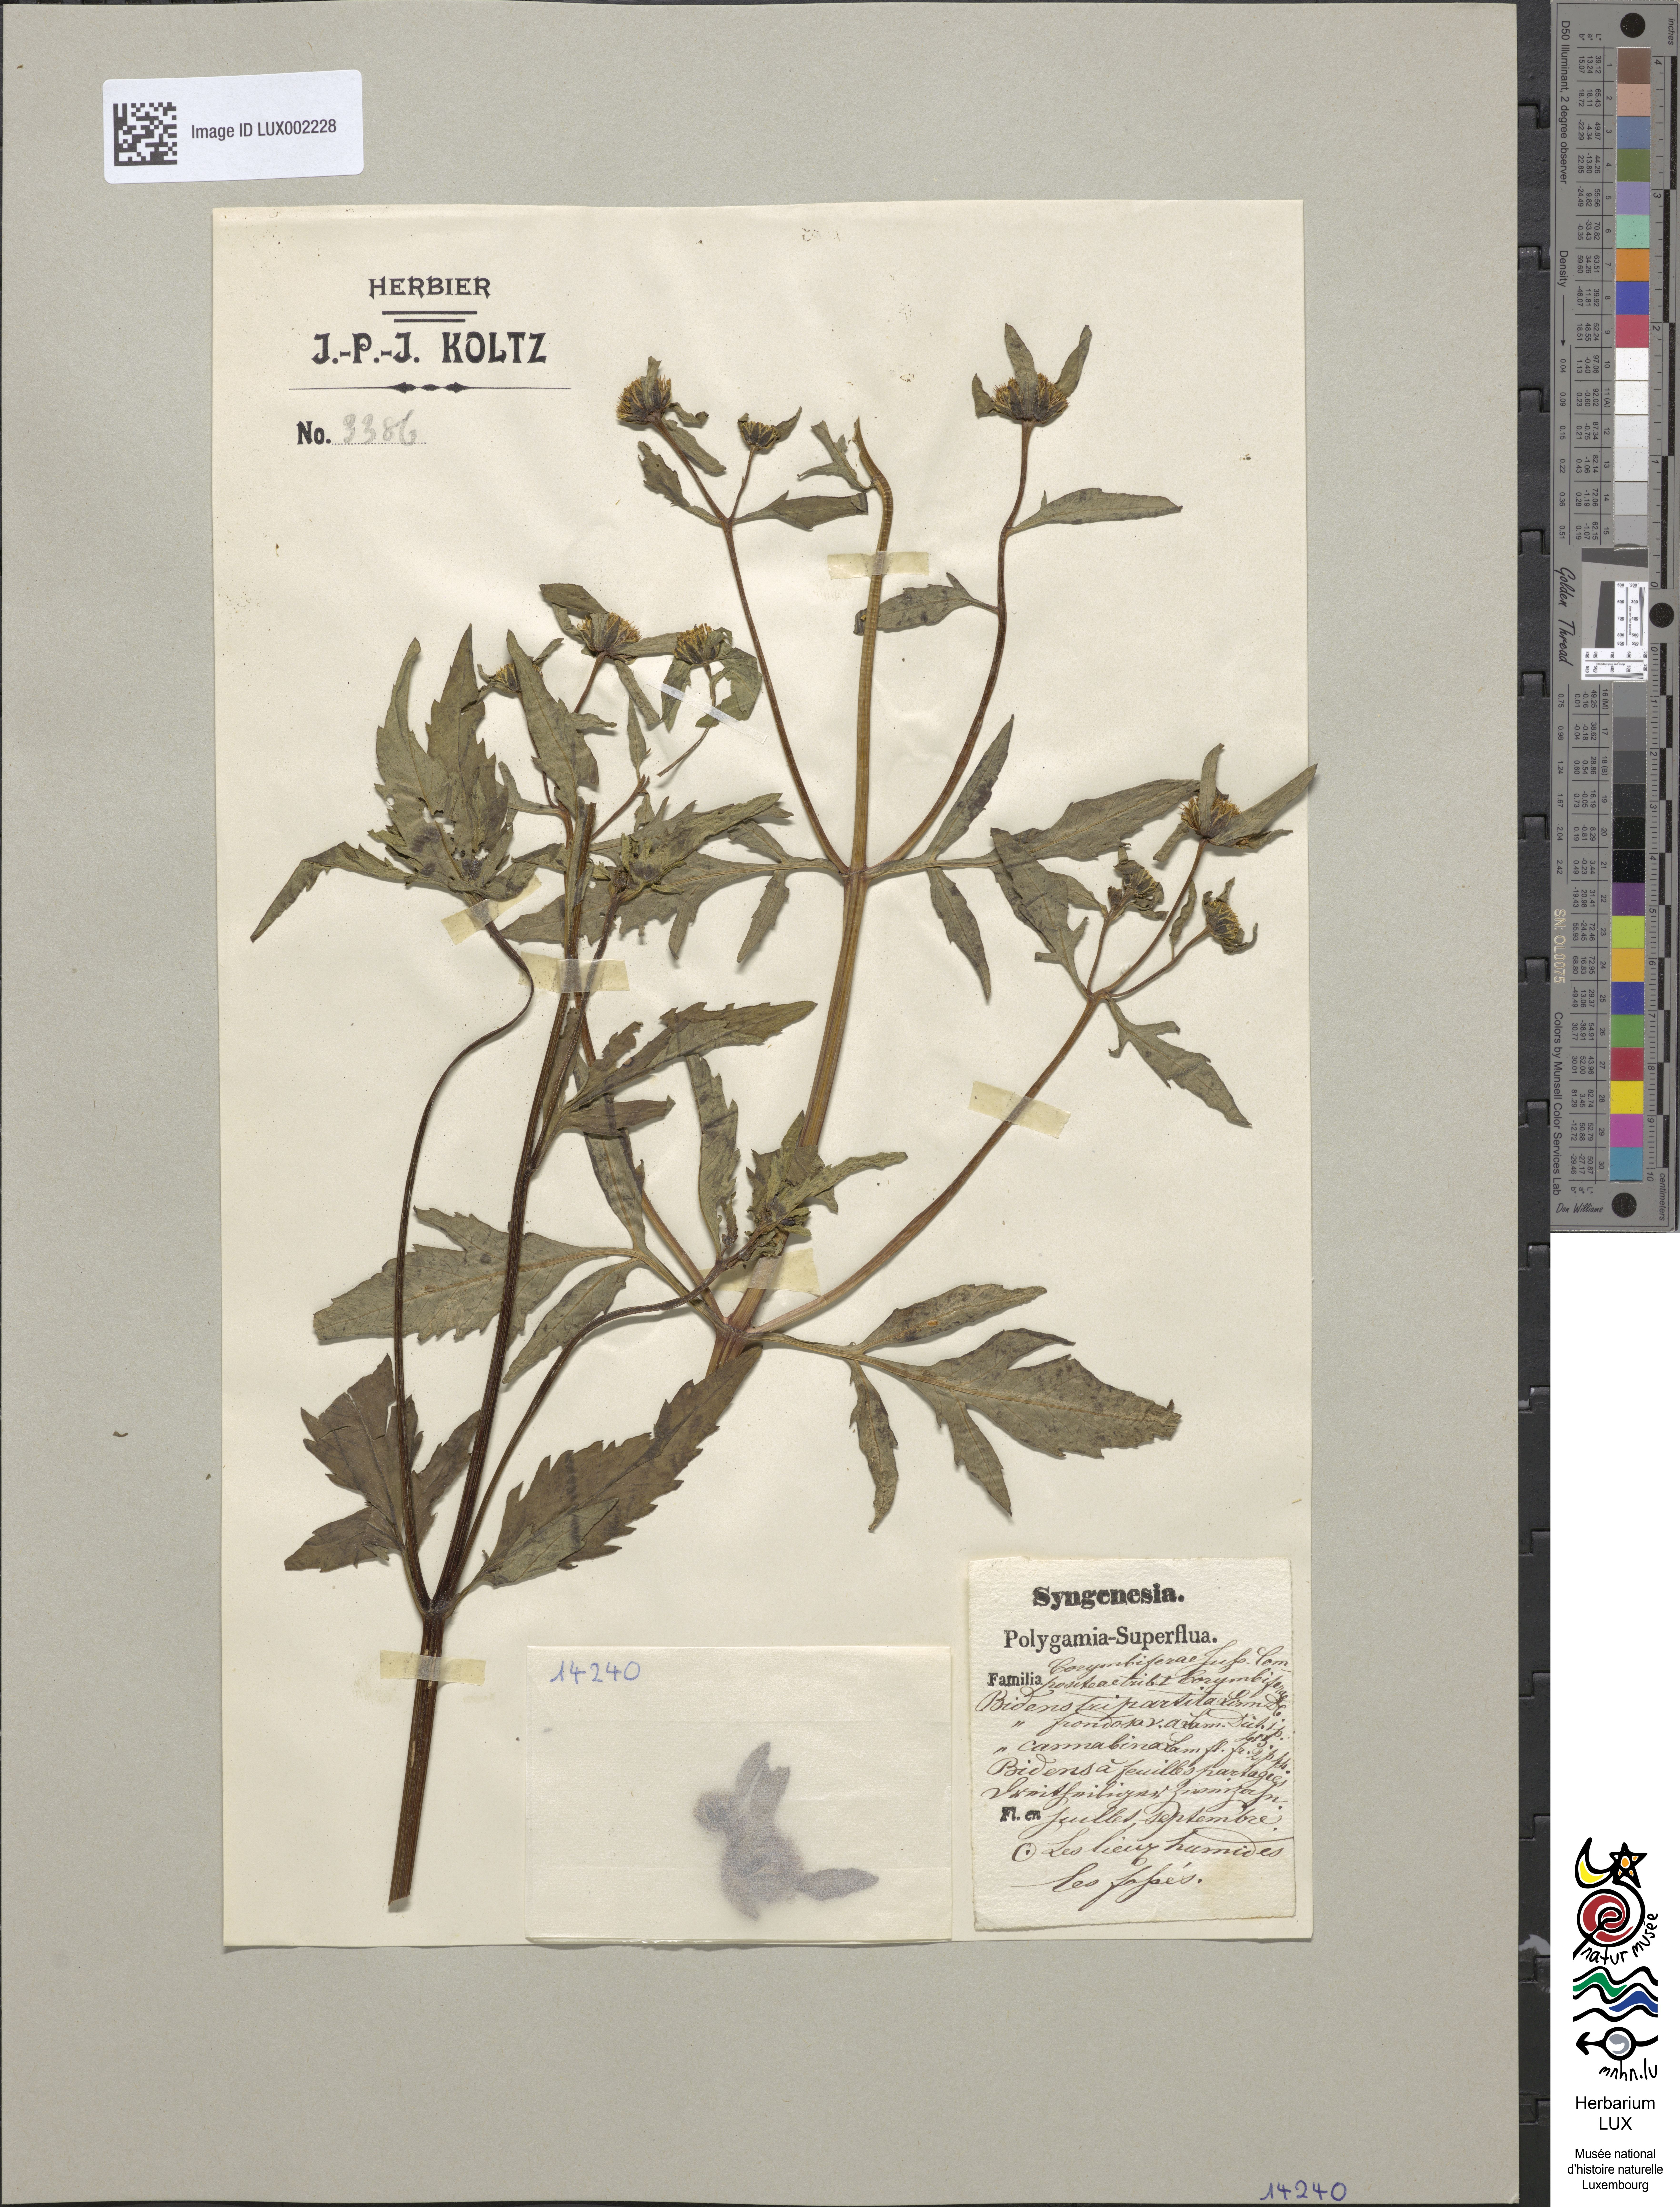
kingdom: Plantae
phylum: Tracheophyta
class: Magnoliopsida
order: Asterales
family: Asteraceae
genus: Bidens
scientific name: Bidens tripartita
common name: Trifid bur-marigold
